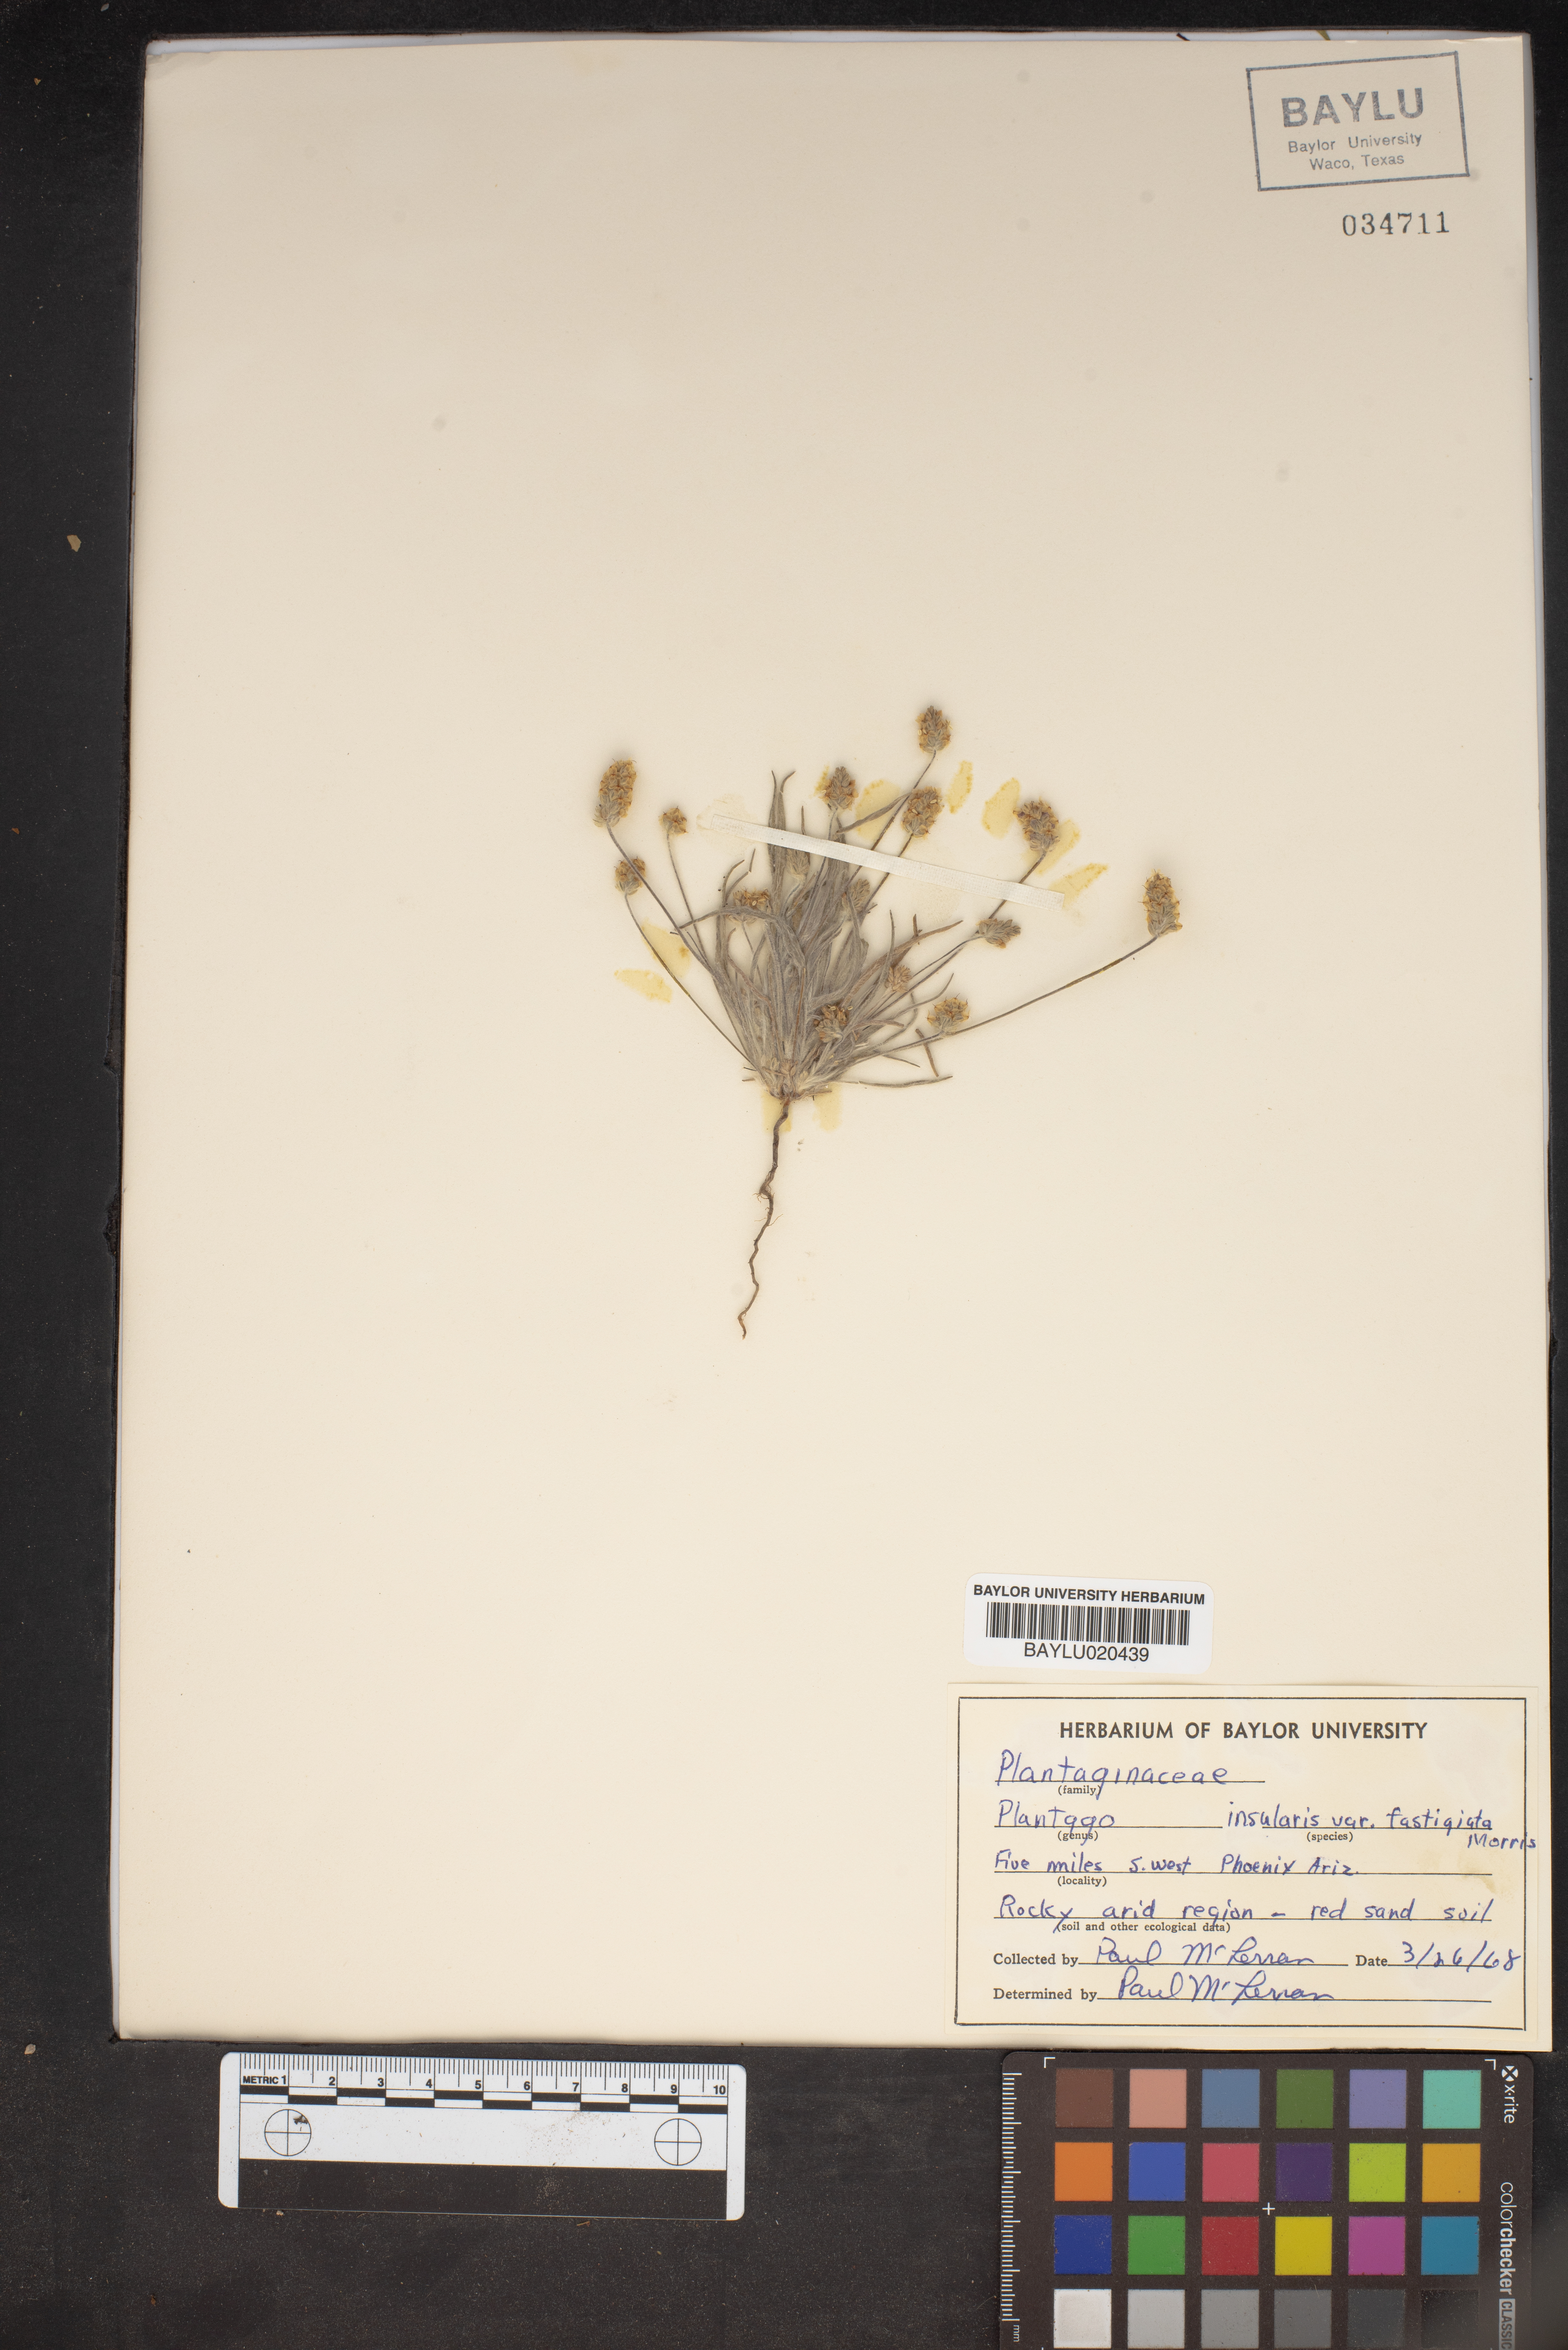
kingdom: Plantae
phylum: Tracheophyta
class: Magnoliopsida
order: Lamiales
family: Plantaginaceae
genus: Plantago
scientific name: Plantago ovata
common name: Blond plantain
